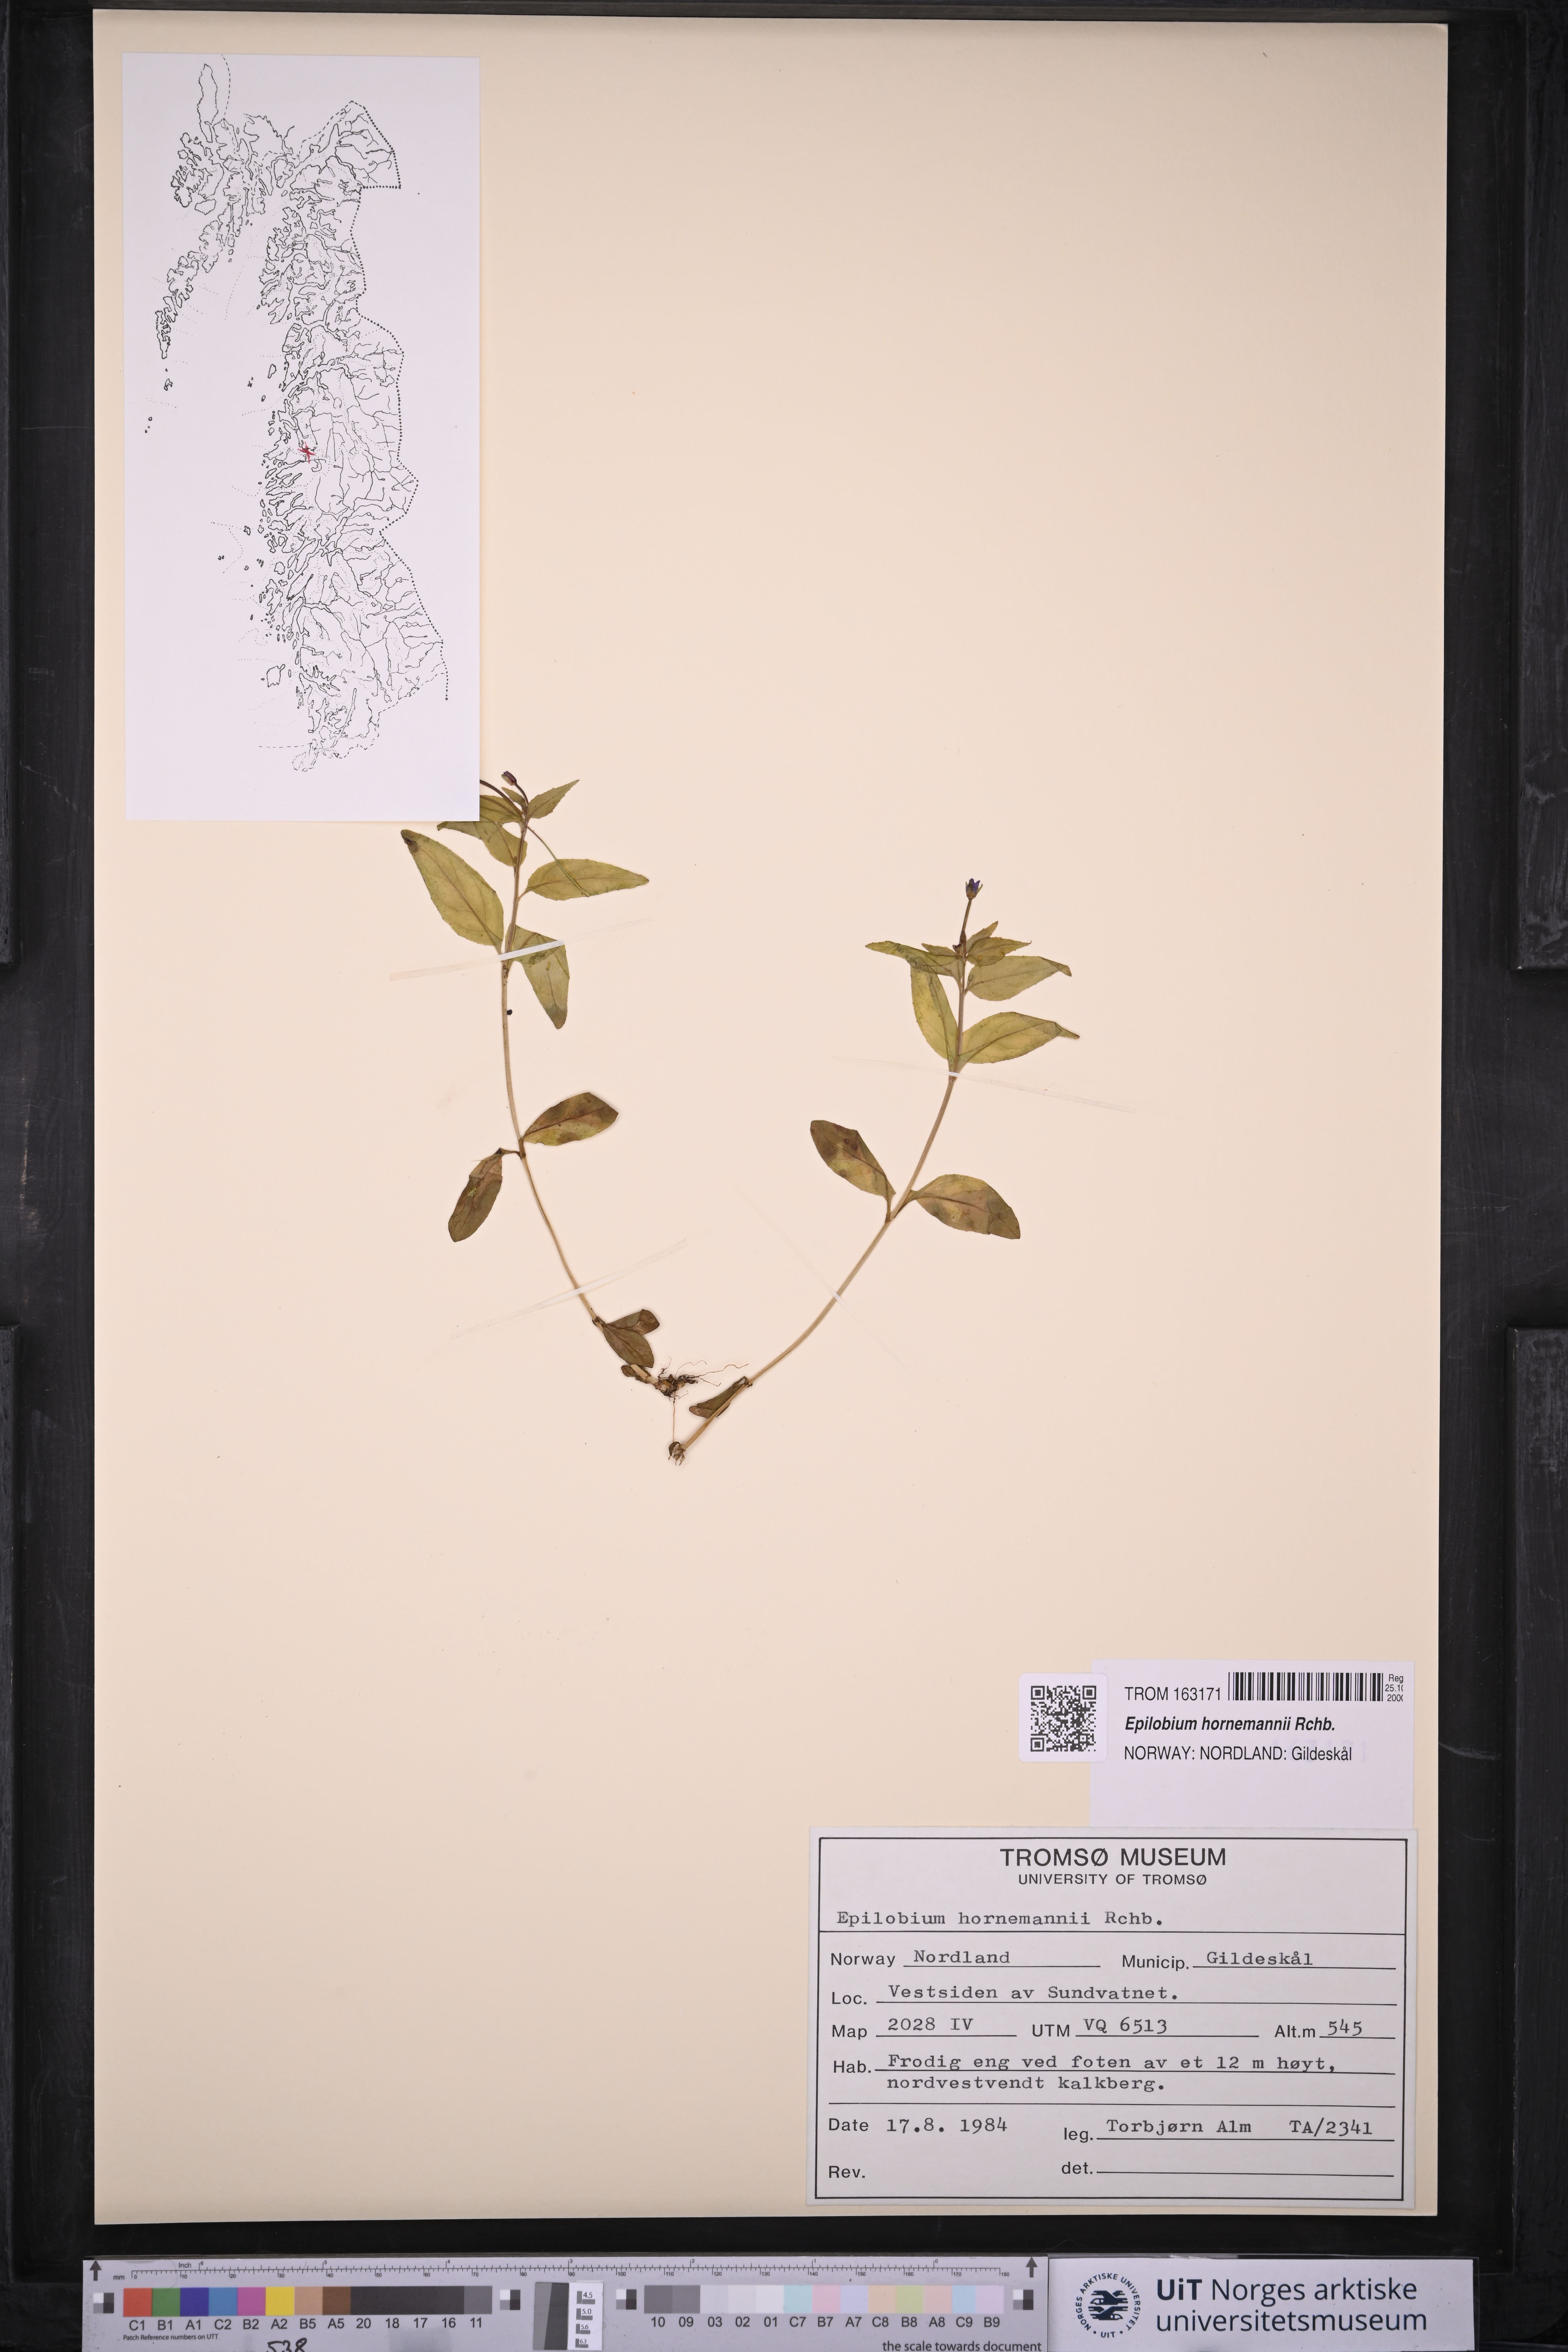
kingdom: Plantae
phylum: Tracheophyta
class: Magnoliopsida
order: Myrtales
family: Onagraceae
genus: Epilobium
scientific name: Epilobium hornemannii
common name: Hornemann's willowherb
